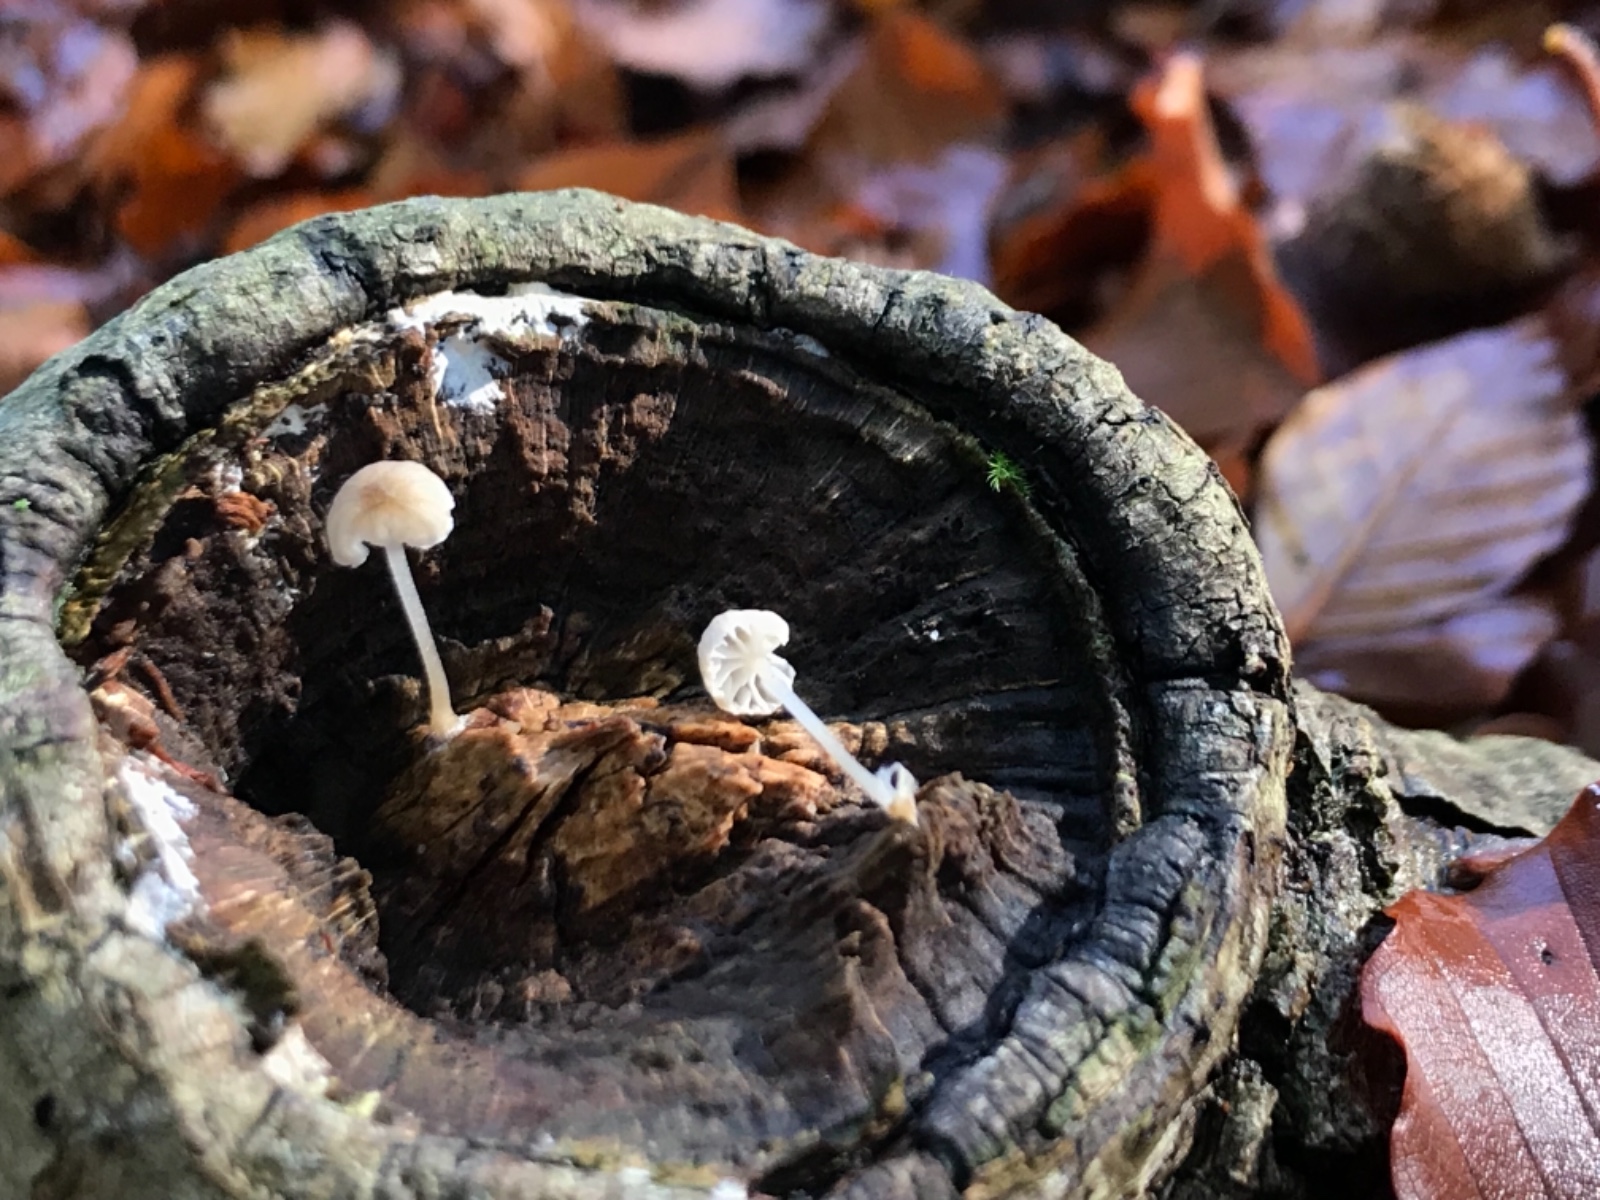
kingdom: Fungi
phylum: Basidiomycota
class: Agaricomycetes
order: Agaricales
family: Porotheleaceae
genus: Phloeomana
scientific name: Phloeomana speirea
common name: kvist-huesvamp
